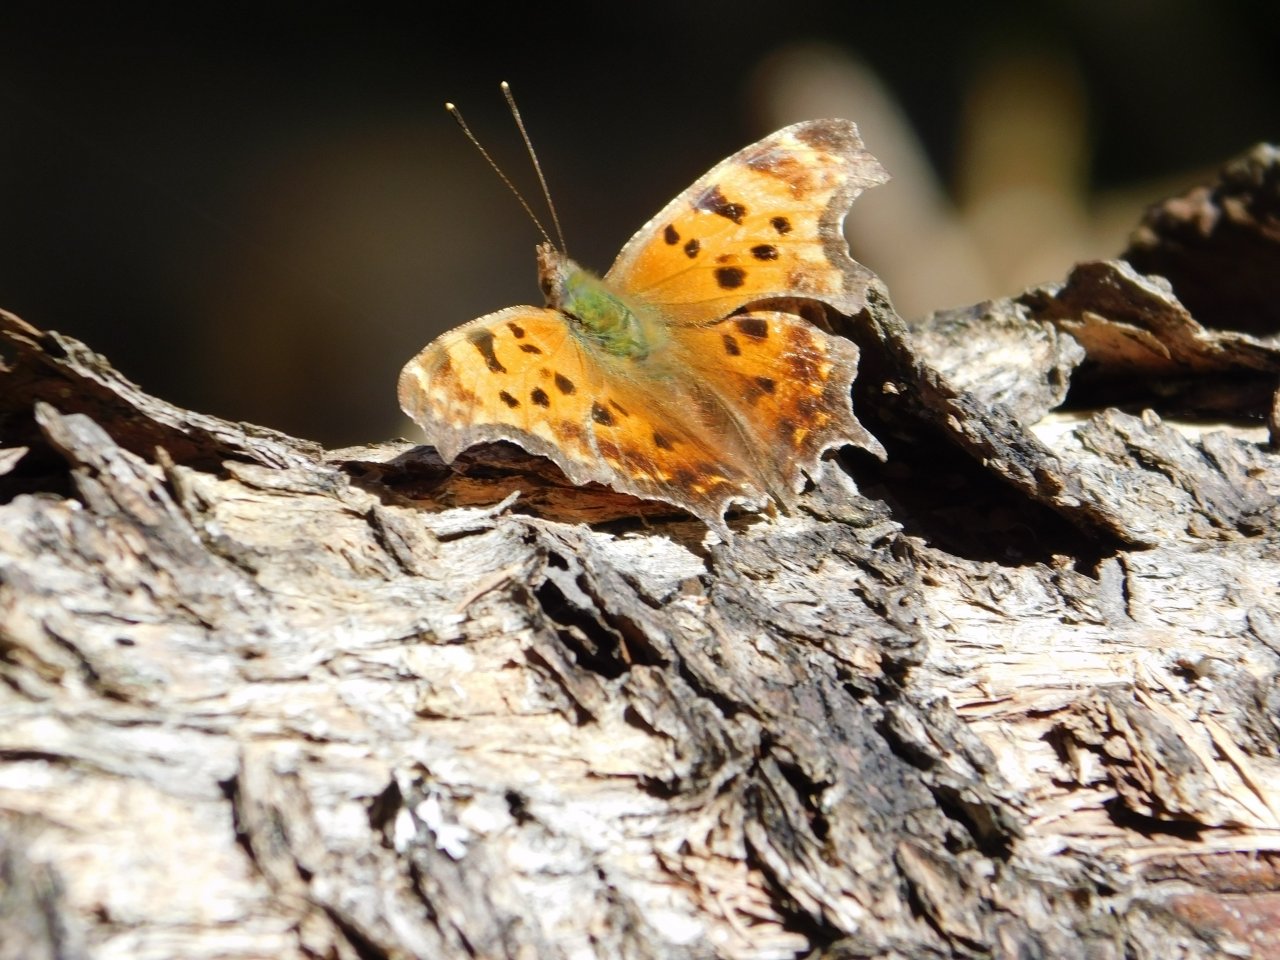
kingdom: Animalia
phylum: Arthropoda
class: Insecta
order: Lepidoptera
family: Nymphalidae
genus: Polygonia
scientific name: Polygonia comma
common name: Eastern Comma
